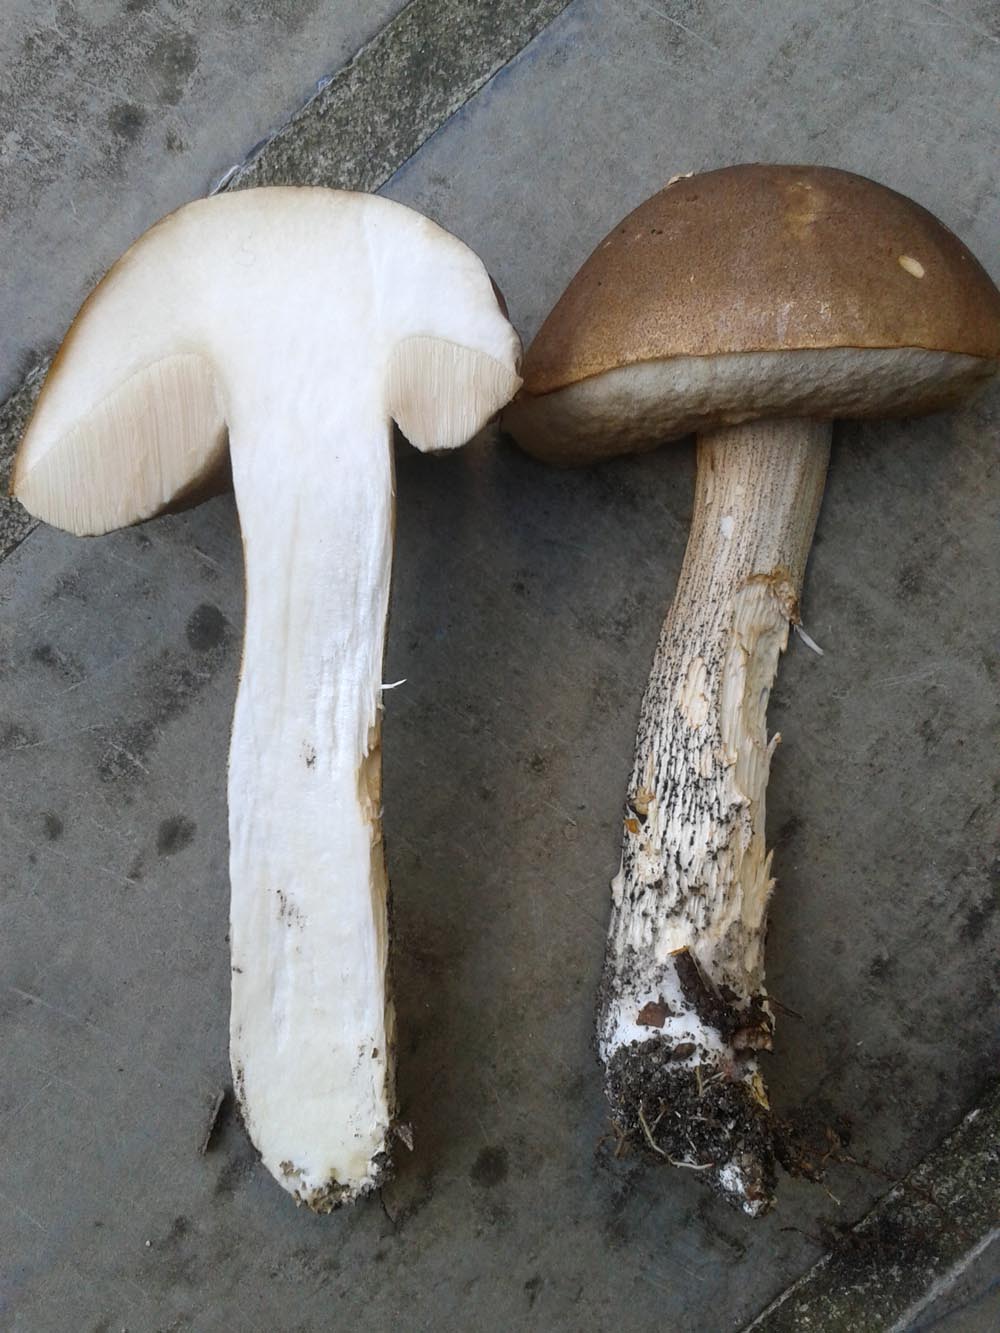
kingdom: Fungi
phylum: Basidiomycota
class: Agaricomycetes
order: Boletales
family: Boletaceae
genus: Leccinum
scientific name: Leccinum scabrum
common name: brun skælrørhat
